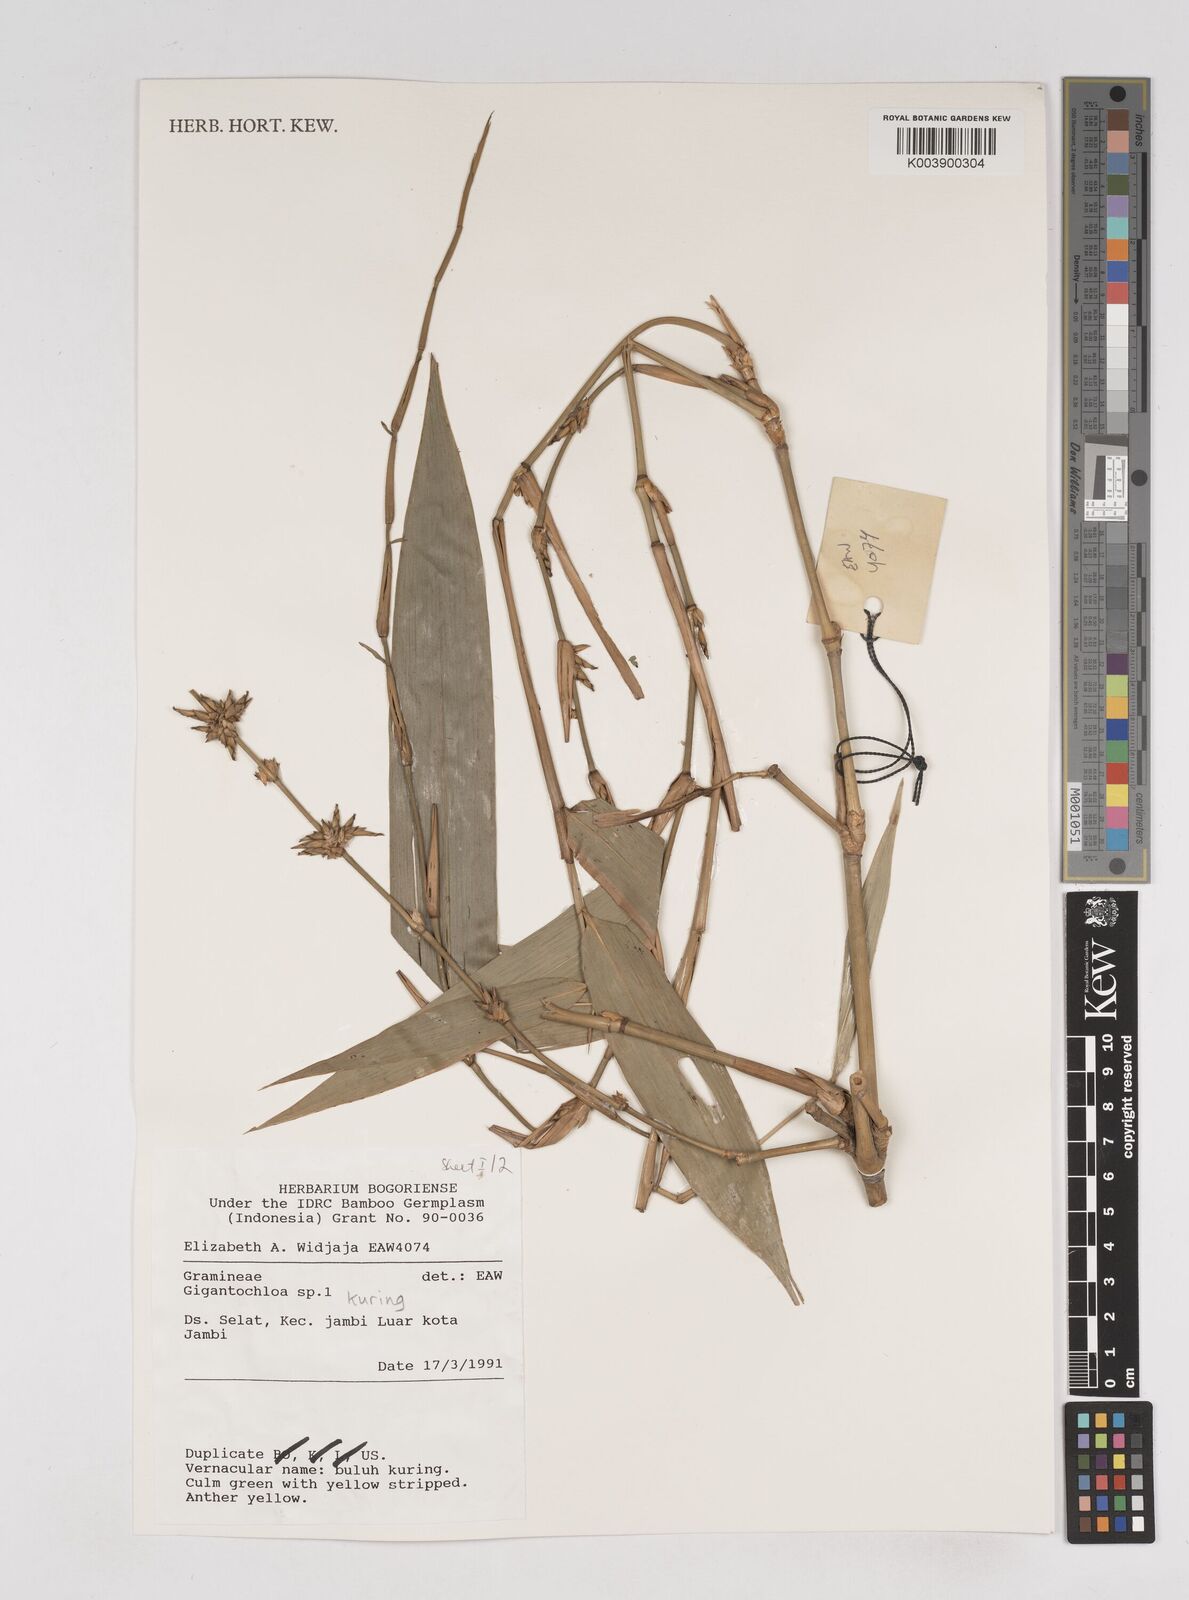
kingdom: Plantae
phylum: Tracheophyta
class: Liliopsida
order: Poales
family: Poaceae
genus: Gigantochloa
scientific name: Gigantochloa kuring
